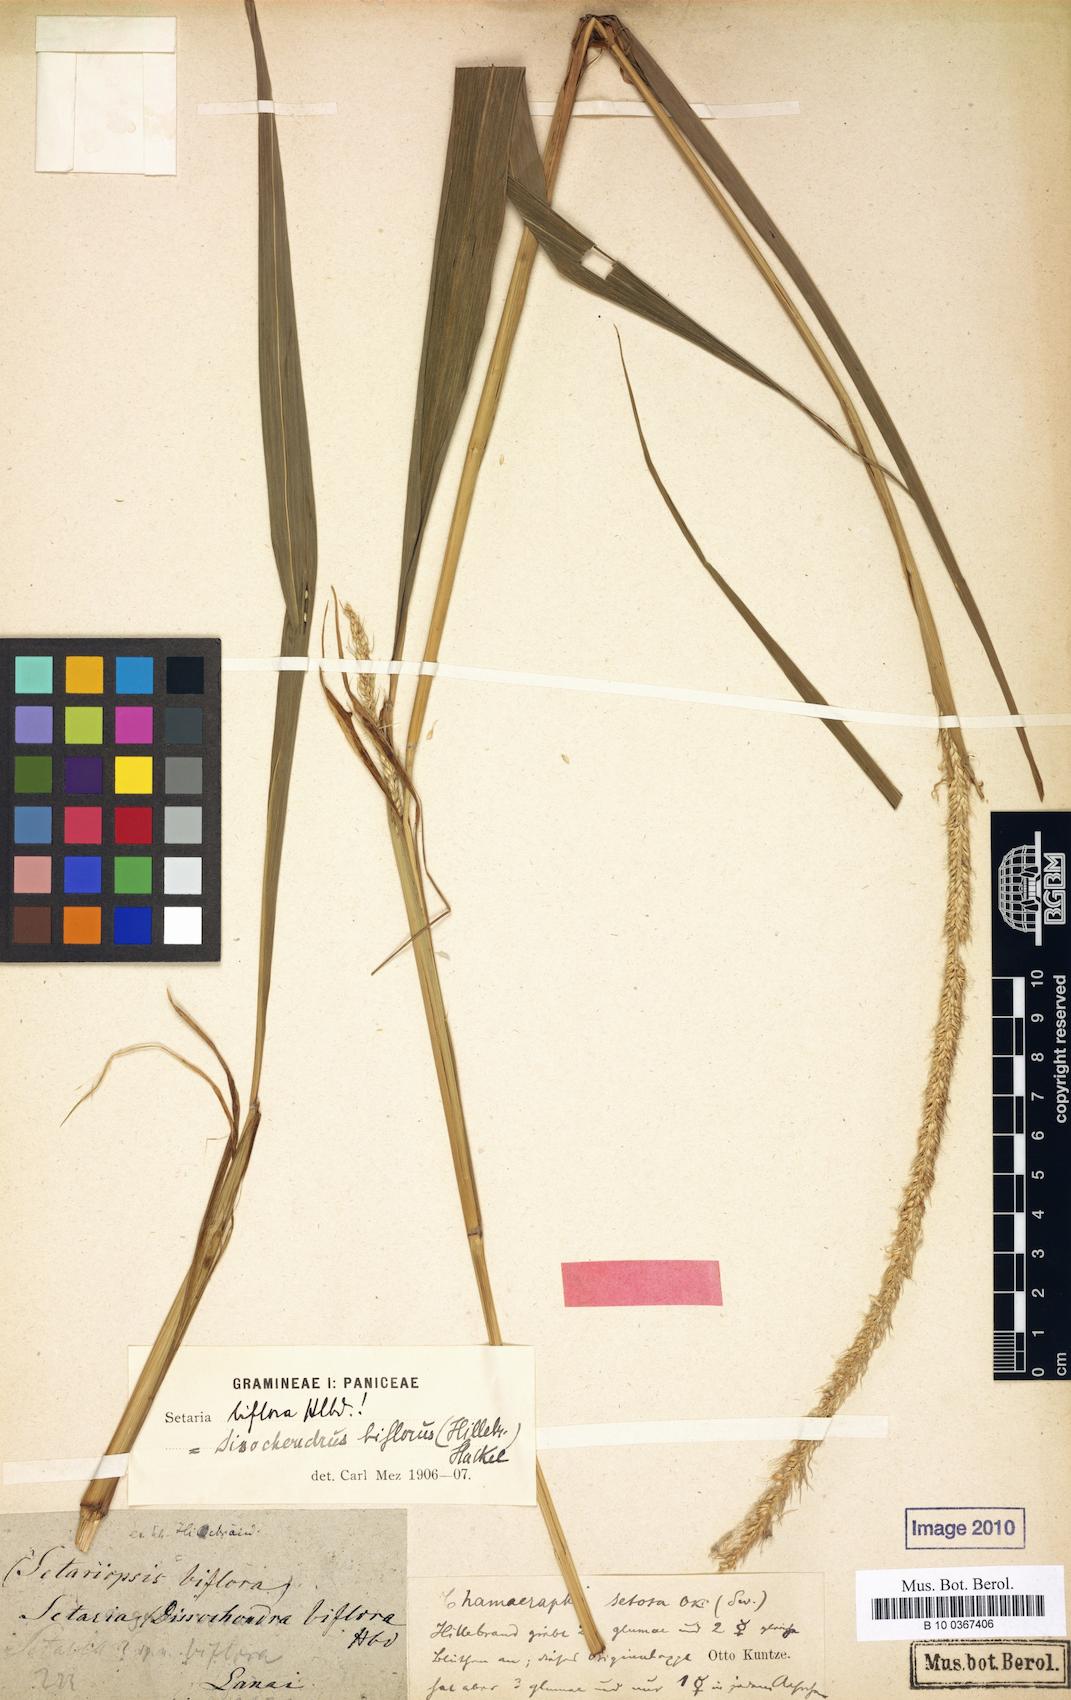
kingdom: Plantae
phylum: Tracheophyta
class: Liliopsida
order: Poales
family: Poaceae
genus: Dissochondrus
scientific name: Dissochondrus biflorus
